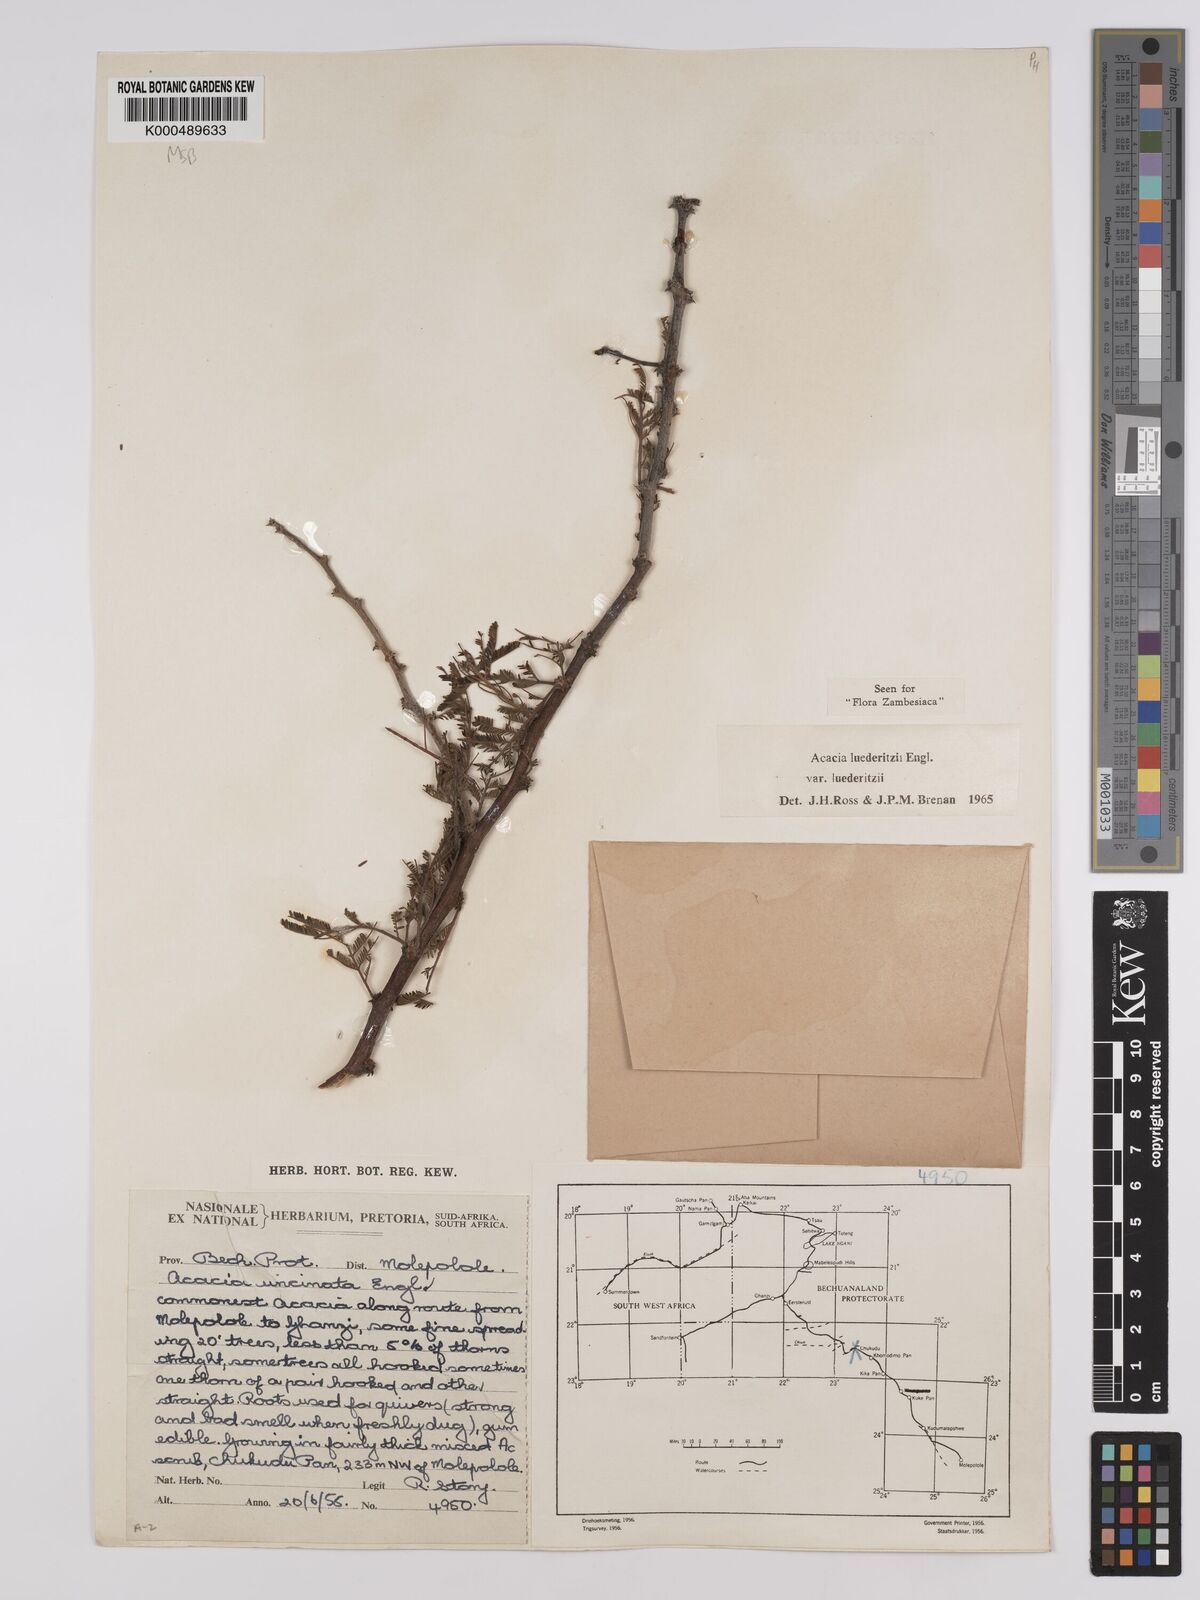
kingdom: Plantae
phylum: Tracheophyta
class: Magnoliopsida
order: Fabales
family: Fabaceae
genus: Vachellia
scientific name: Vachellia
